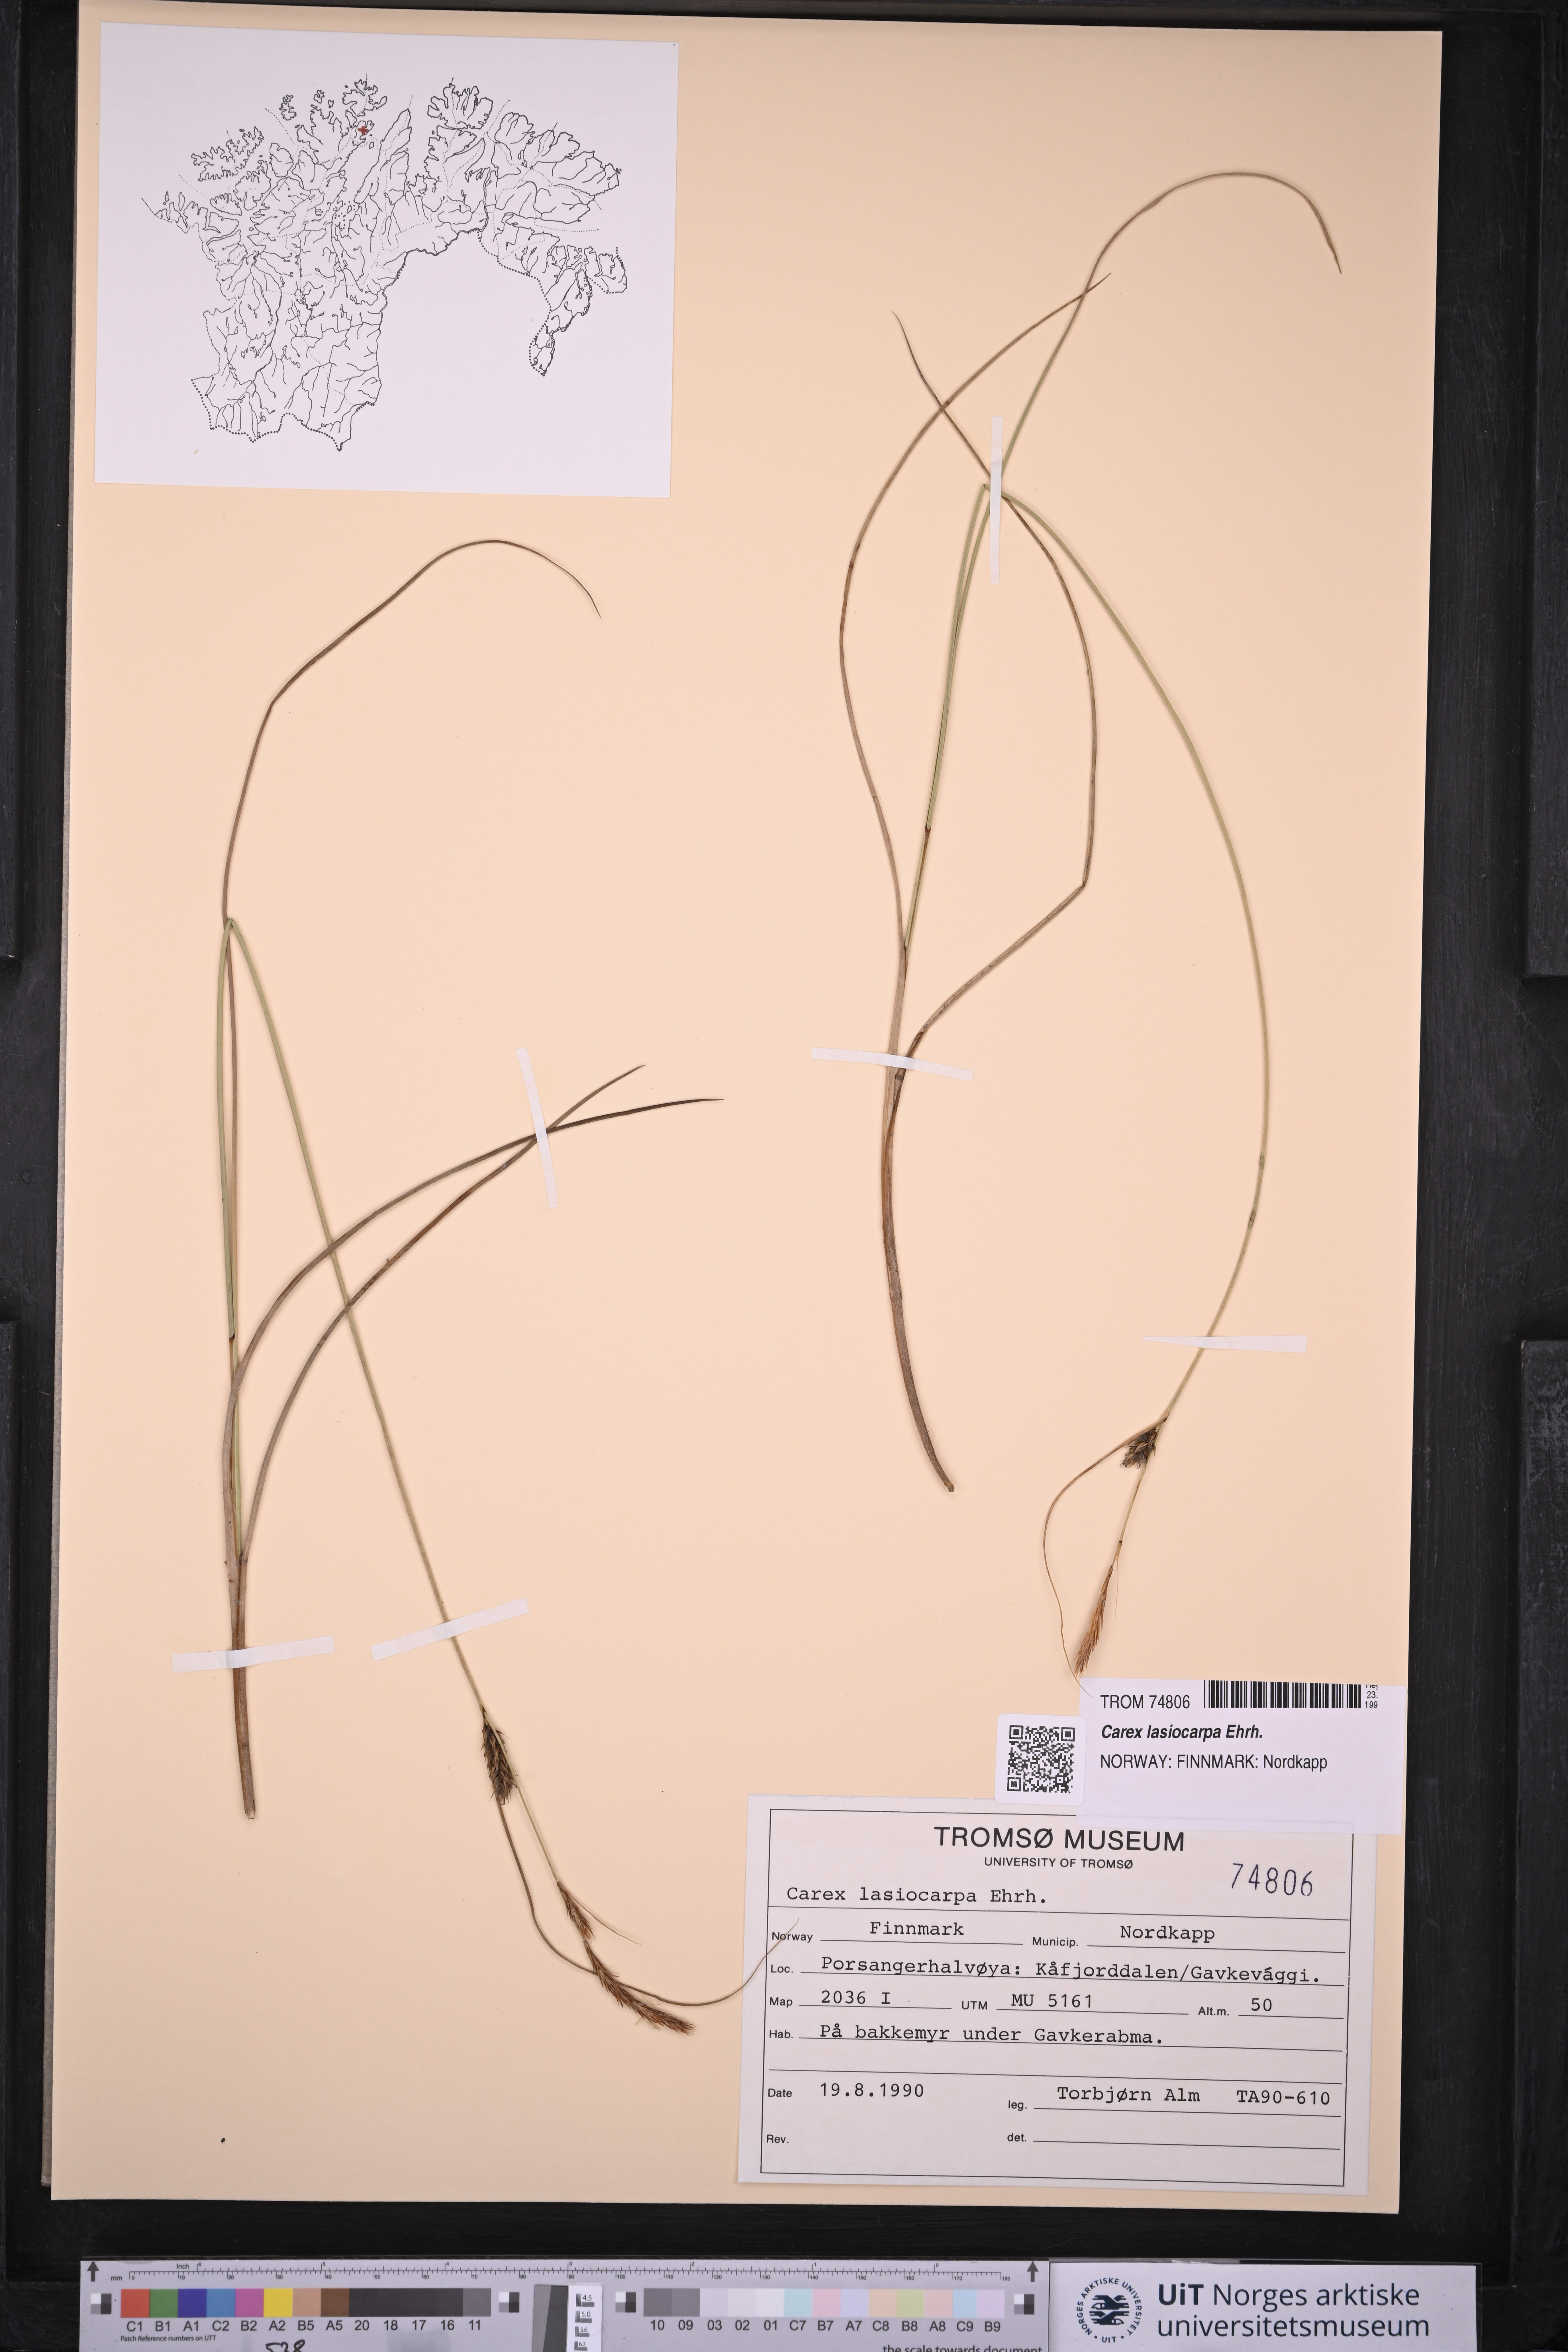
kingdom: Plantae
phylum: Tracheophyta
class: Liliopsida
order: Poales
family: Cyperaceae
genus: Carex
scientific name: Carex lasiocarpa
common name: Slender sedge
